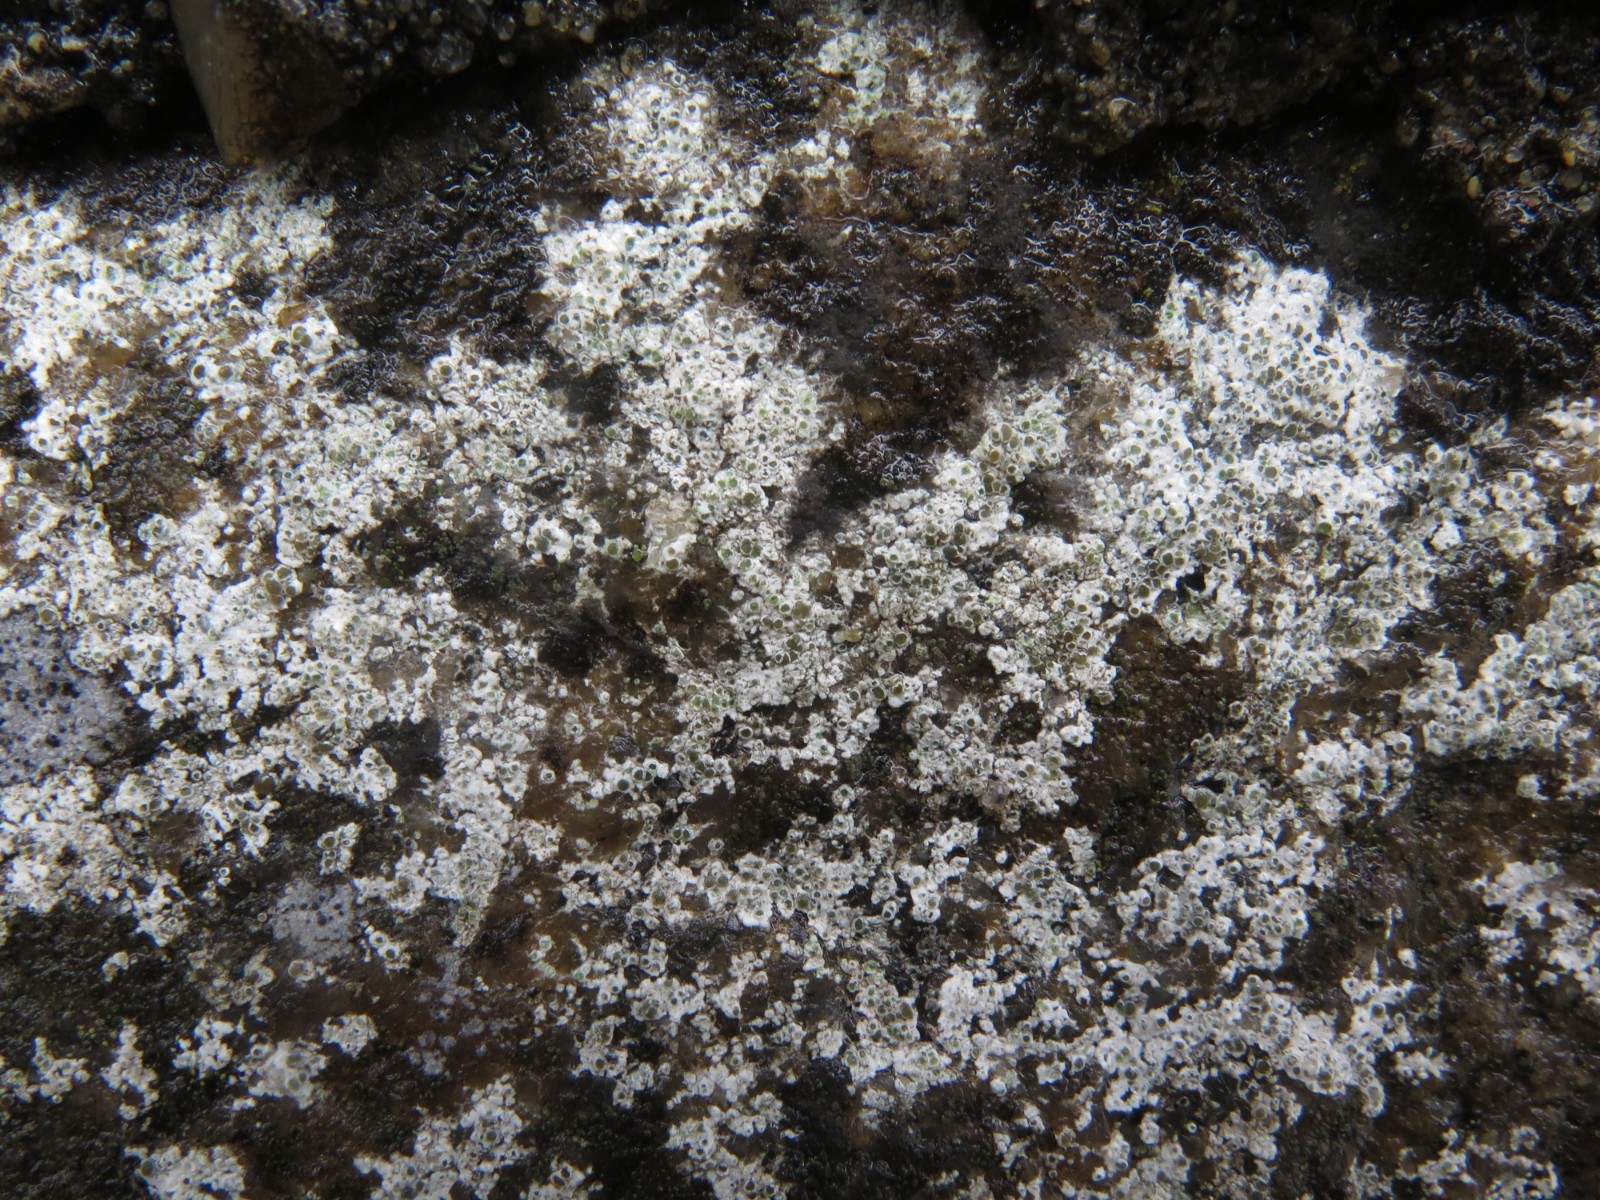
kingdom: Fungi
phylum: Ascomycota
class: Lecanoromycetes
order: Lecanorales
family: Lecanoraceae
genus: Polyozosia
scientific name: Polyozosia albescens
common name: cement-kantskivelav
